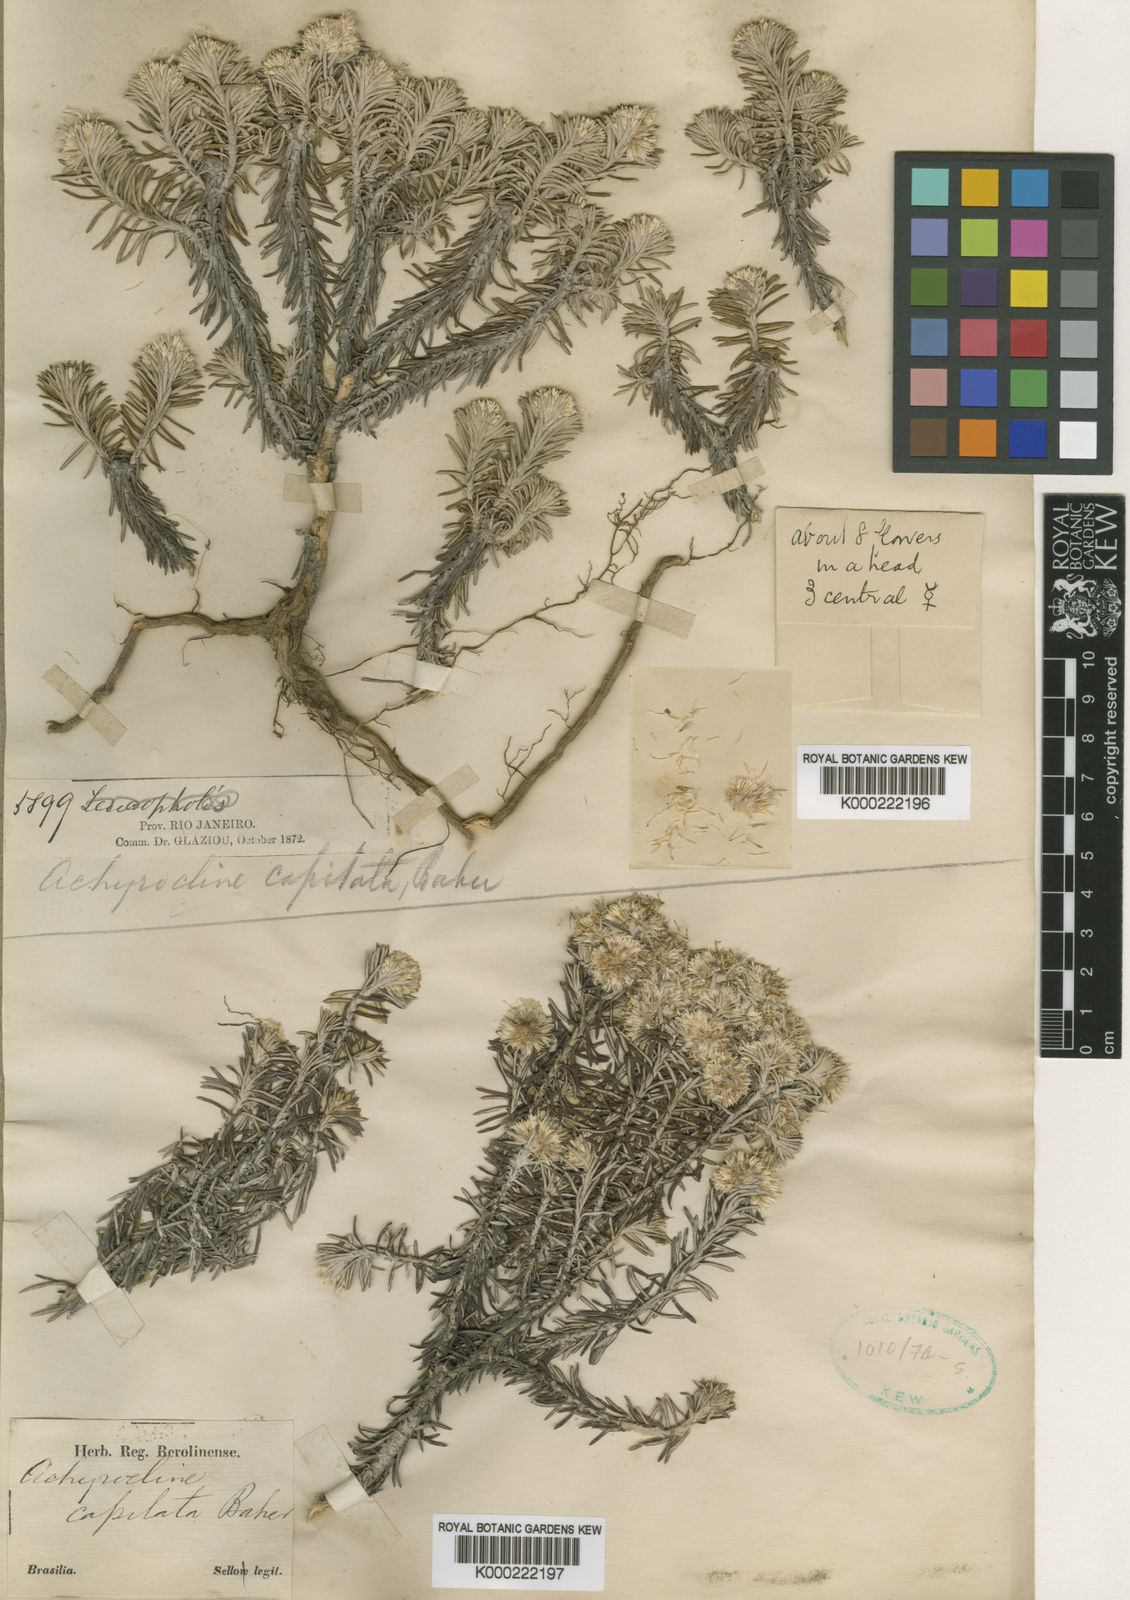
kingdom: Plantae
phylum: Tracheophyta
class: Magnoliopsida
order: Asterales
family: Asteraceae
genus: Chionolaena
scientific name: Chionolaena capitata
